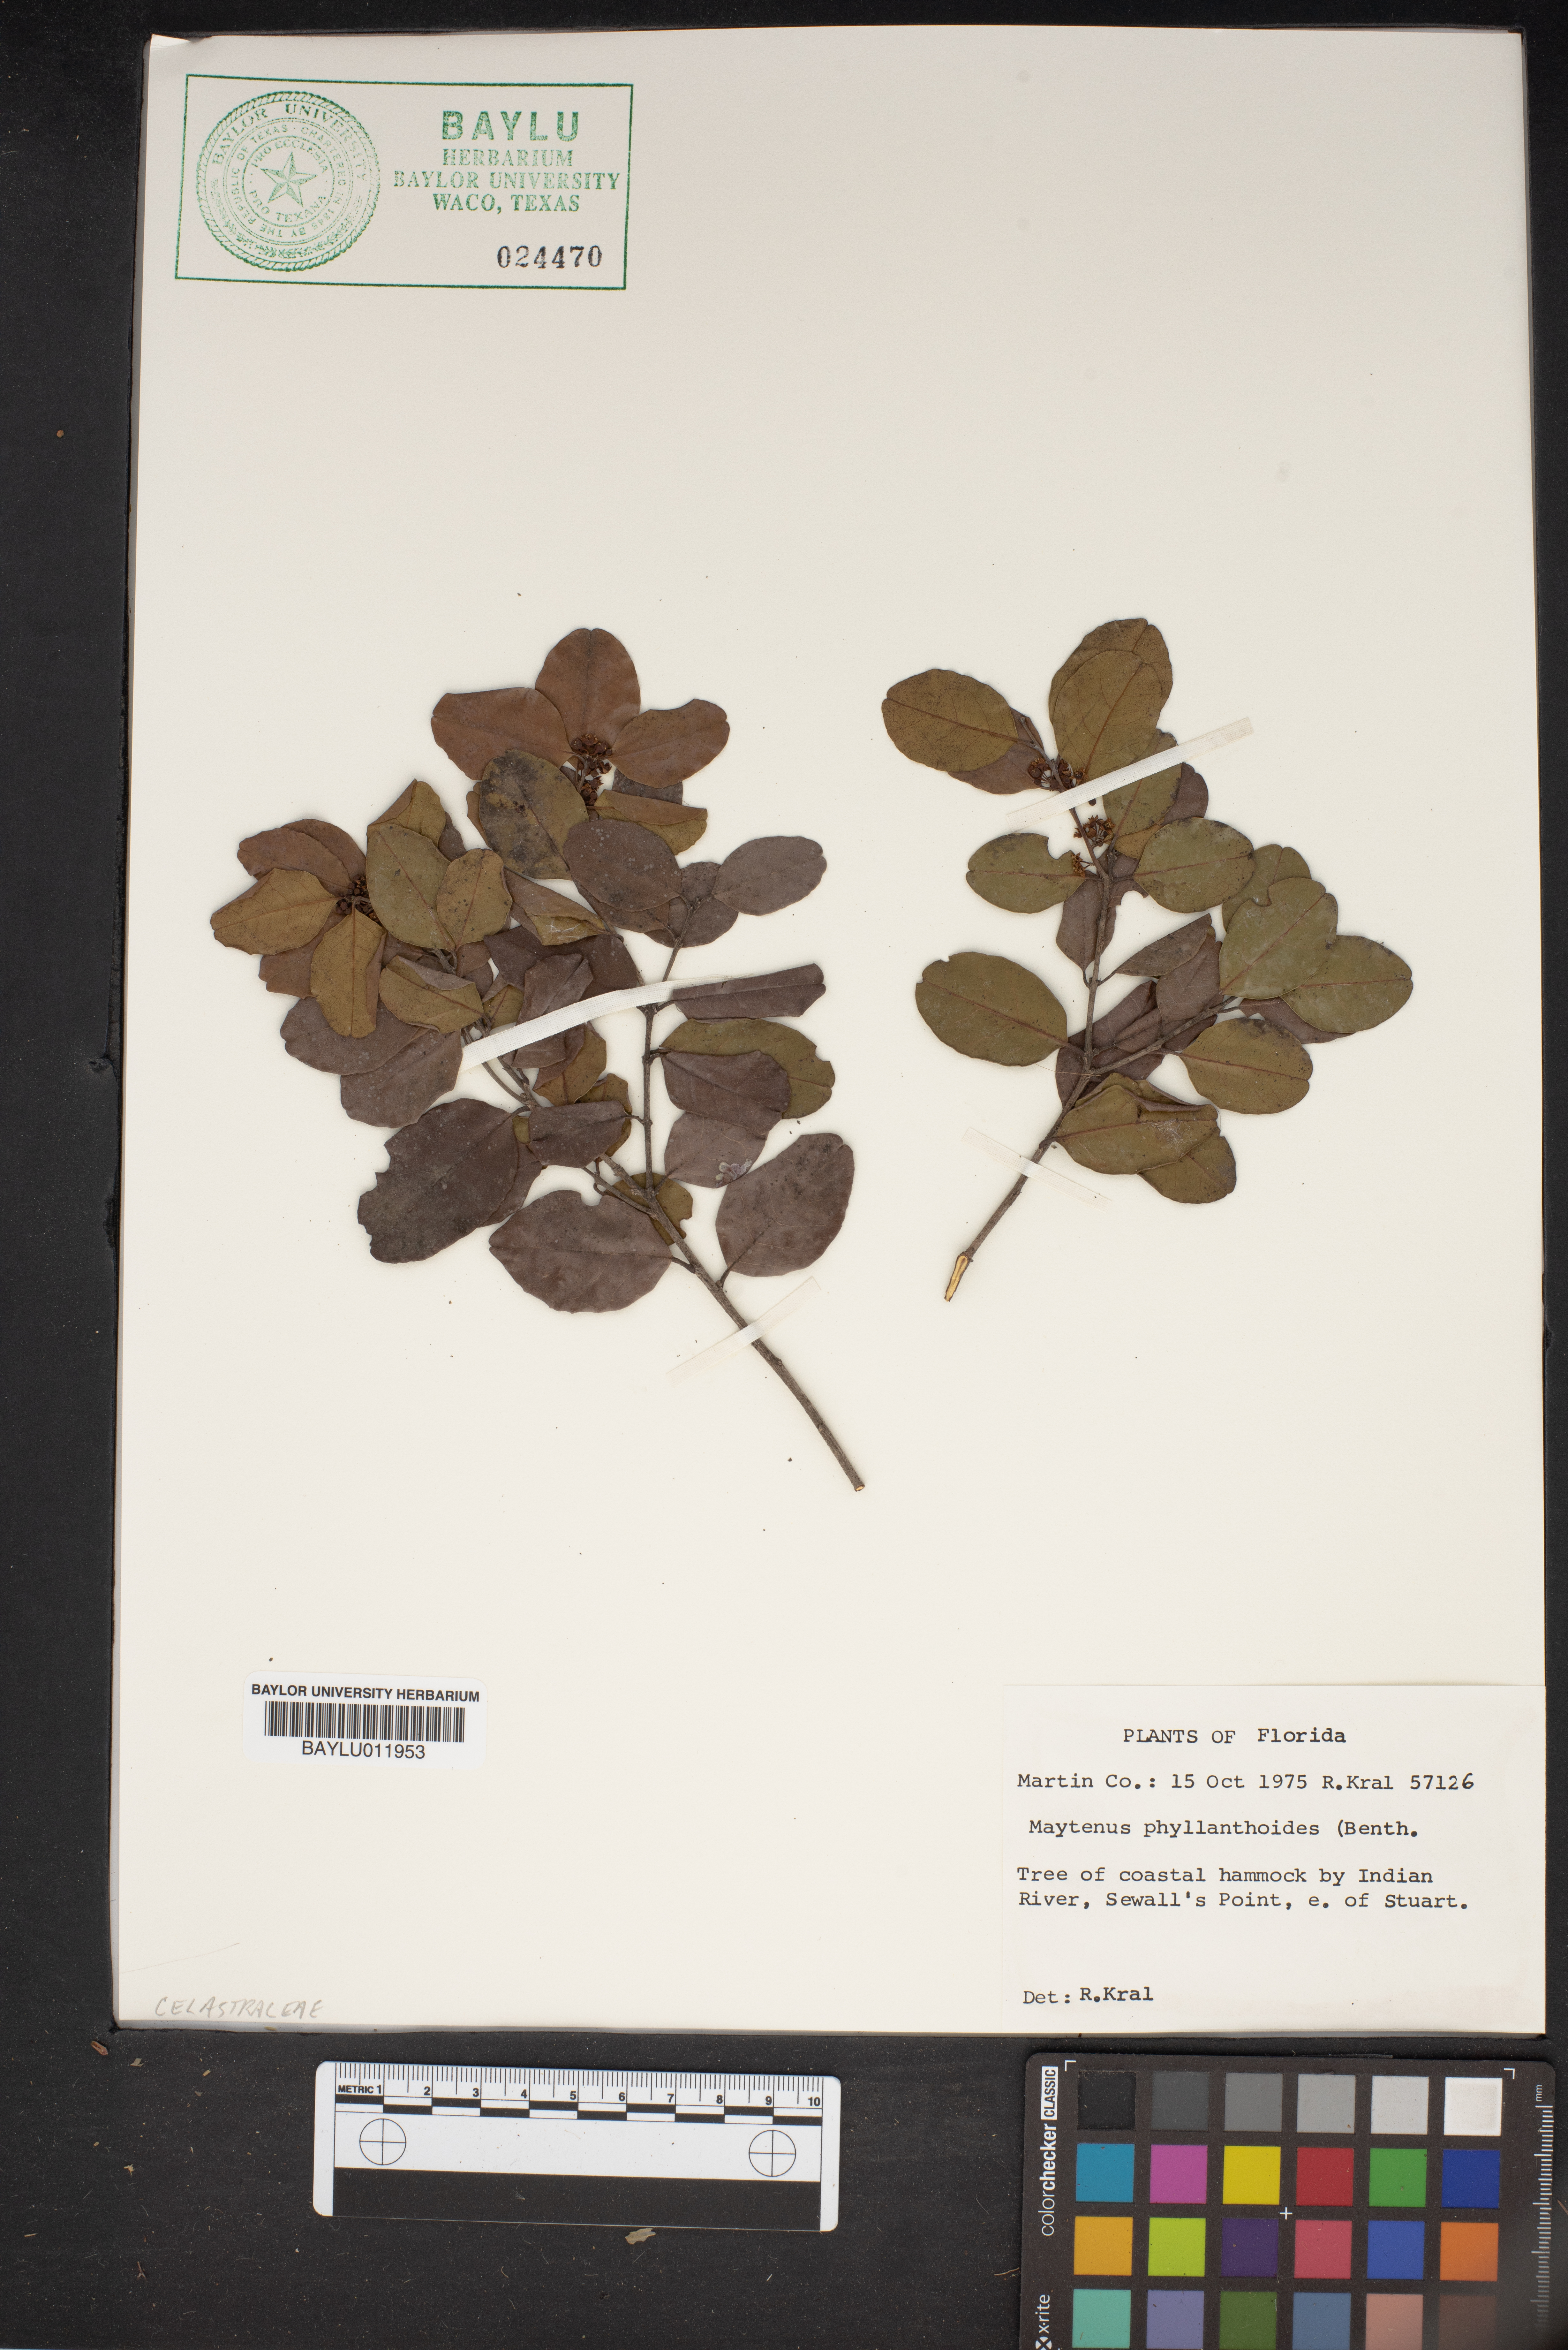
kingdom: Plantae
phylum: Tracheophyta
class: Magnoliopsida
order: Celastrales
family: Celastraceae
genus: Tricerma
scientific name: Tricerma phyllanthoides
